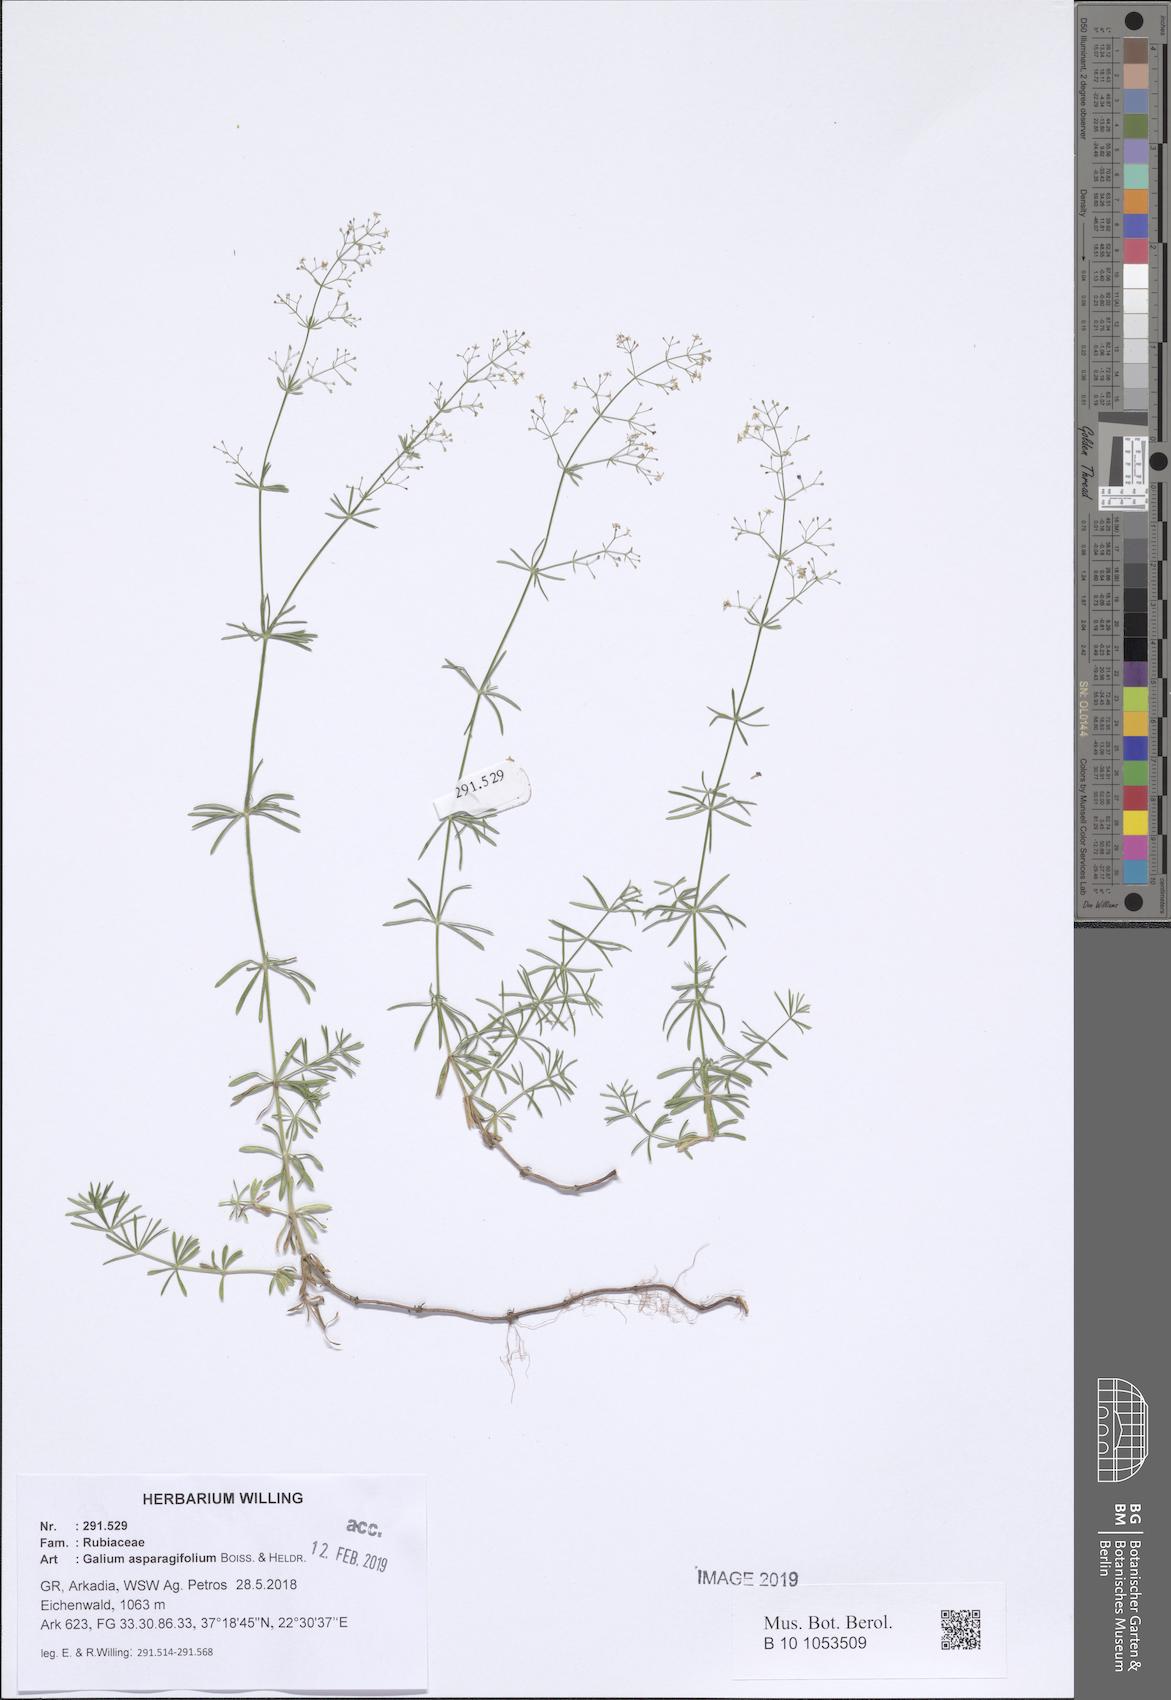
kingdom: Plantae
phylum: Tracheophyta
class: Magnoliopsida
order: Gentianales
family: Rubiaceae
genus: Galium
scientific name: Galium asparagifolium
